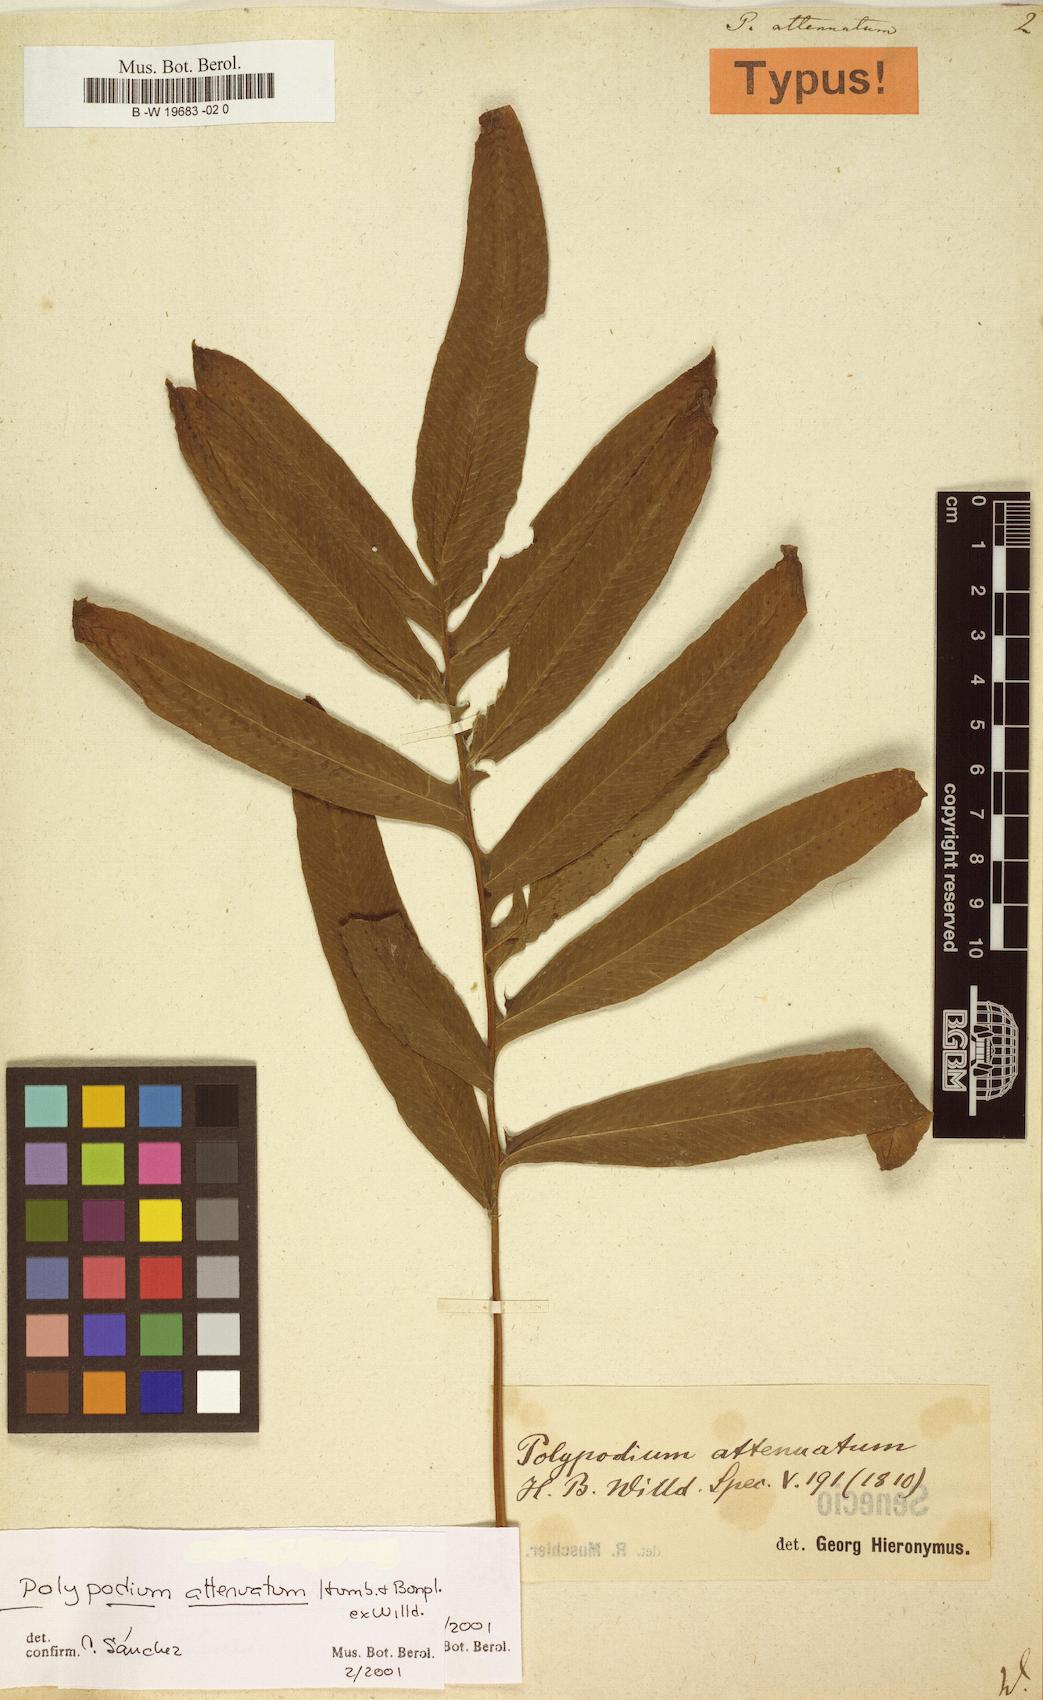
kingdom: Plantae
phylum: Tracheophyta
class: Polypodiopsida
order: Polypodiales
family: Polypodiaceae
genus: Serpocaulon
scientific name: Serpocaulon attenuatum
